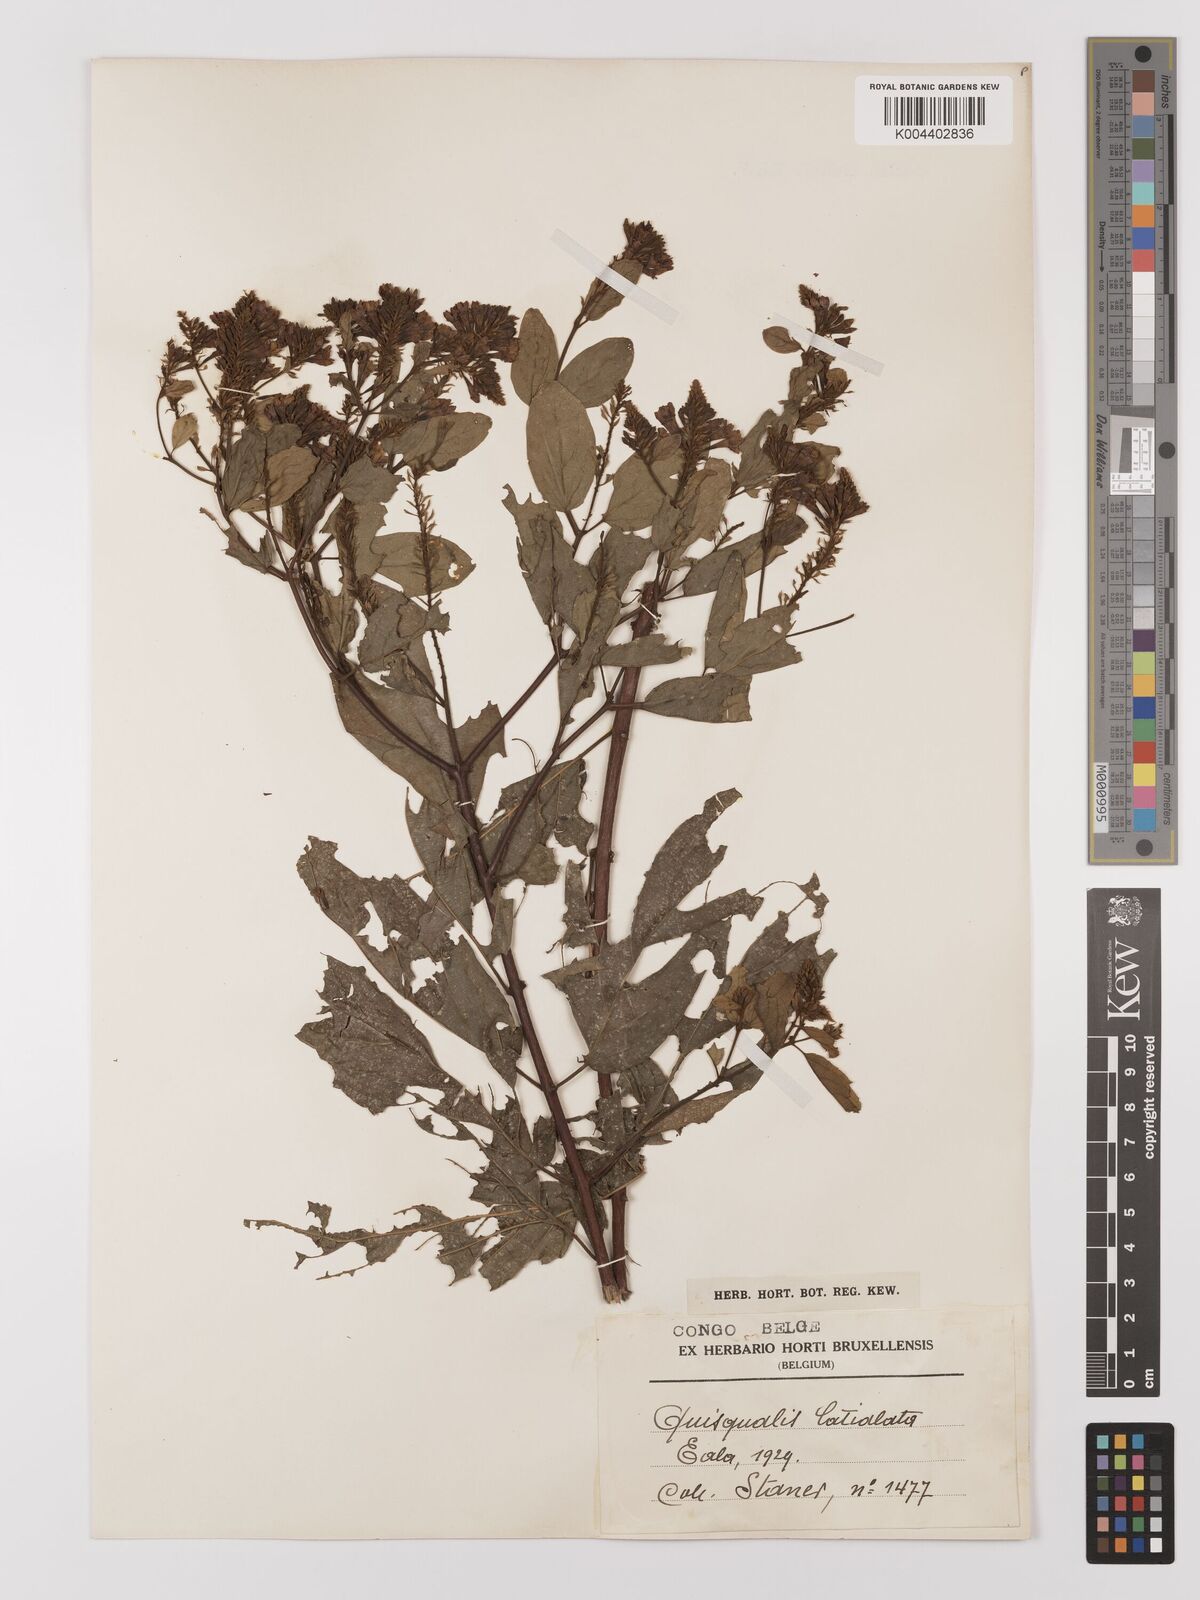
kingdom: Plantae
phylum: Tracheophyta
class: Magnoliopsida
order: Myrtales
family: Combretaceae
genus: Combretum
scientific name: Combretum latialatum
